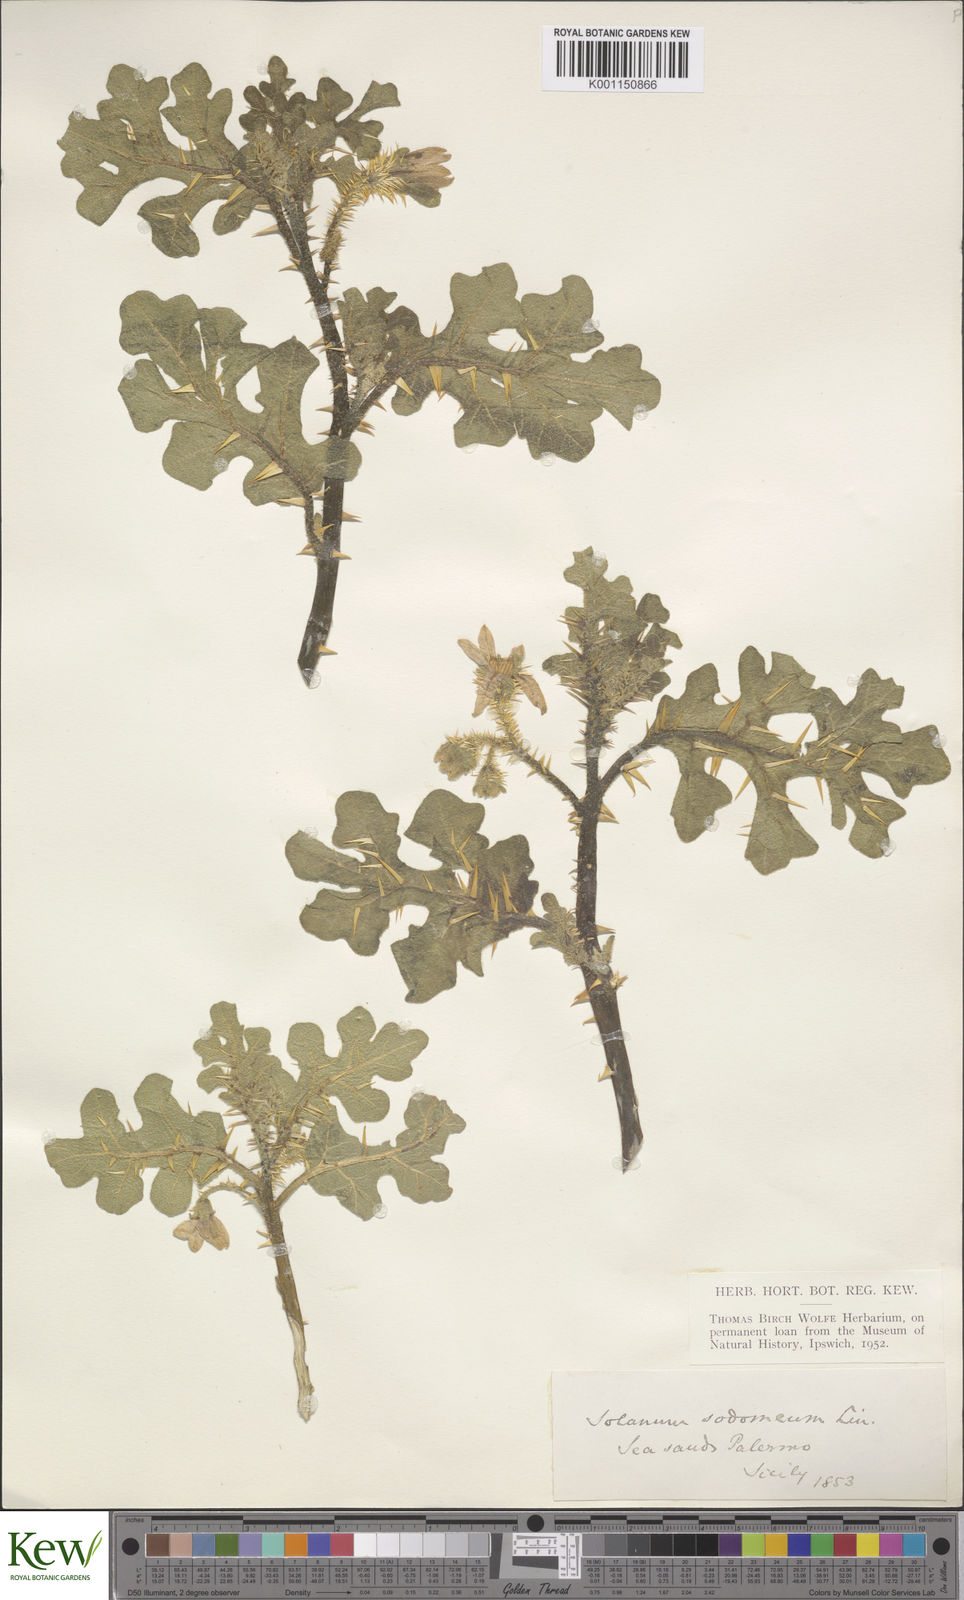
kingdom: Plantae
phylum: Tracheophyta
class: Magnoliopsida
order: Solanales
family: Solanaceae
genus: Solanum
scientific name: Solanum anguivi
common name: Forest bitterberry
